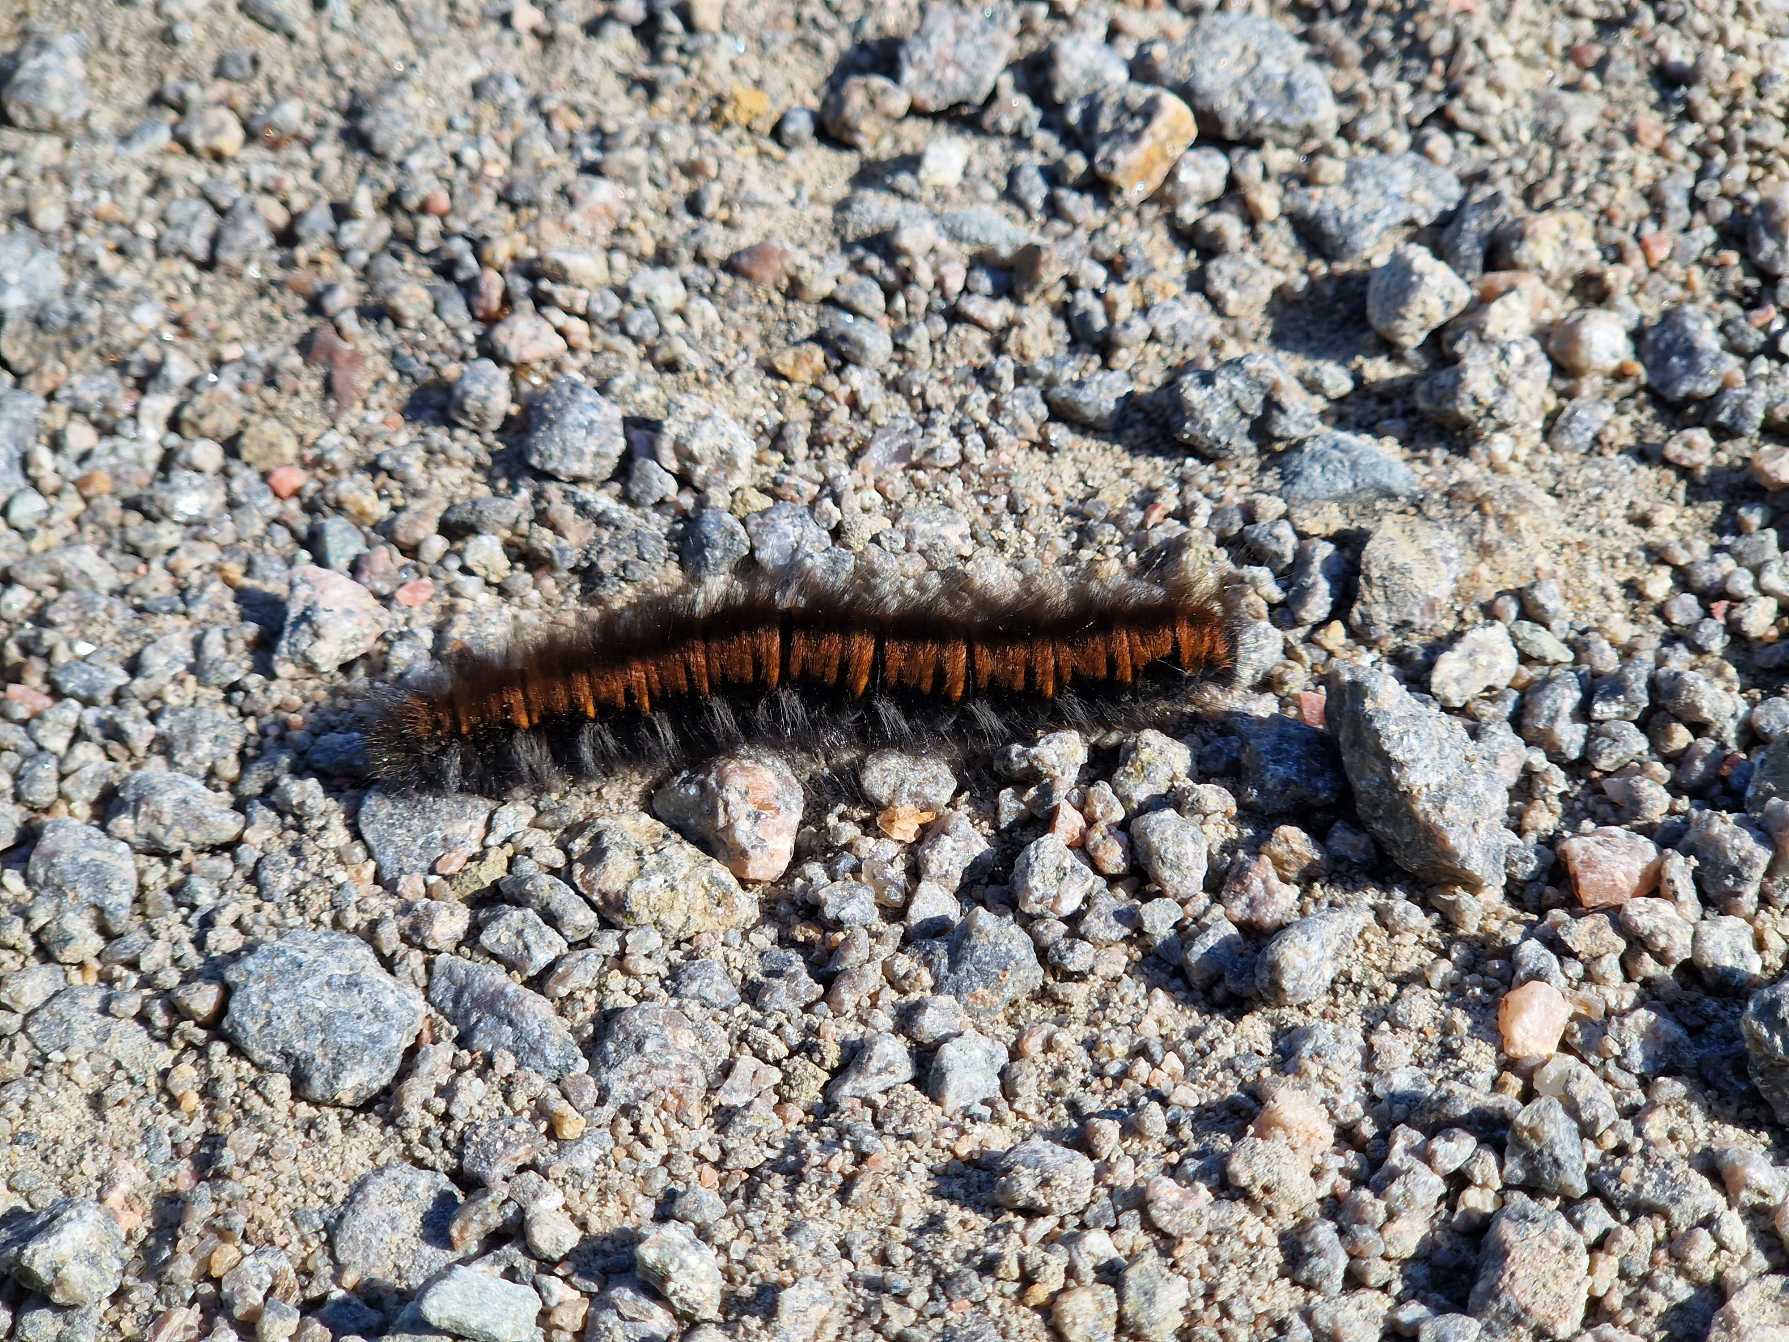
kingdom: Animalia
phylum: Arthropoda
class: Insecta
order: Lepidoptera
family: Lasiocampidae
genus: Macrothylacia
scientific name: Macrothylacia rubi
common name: Brombærspinder
